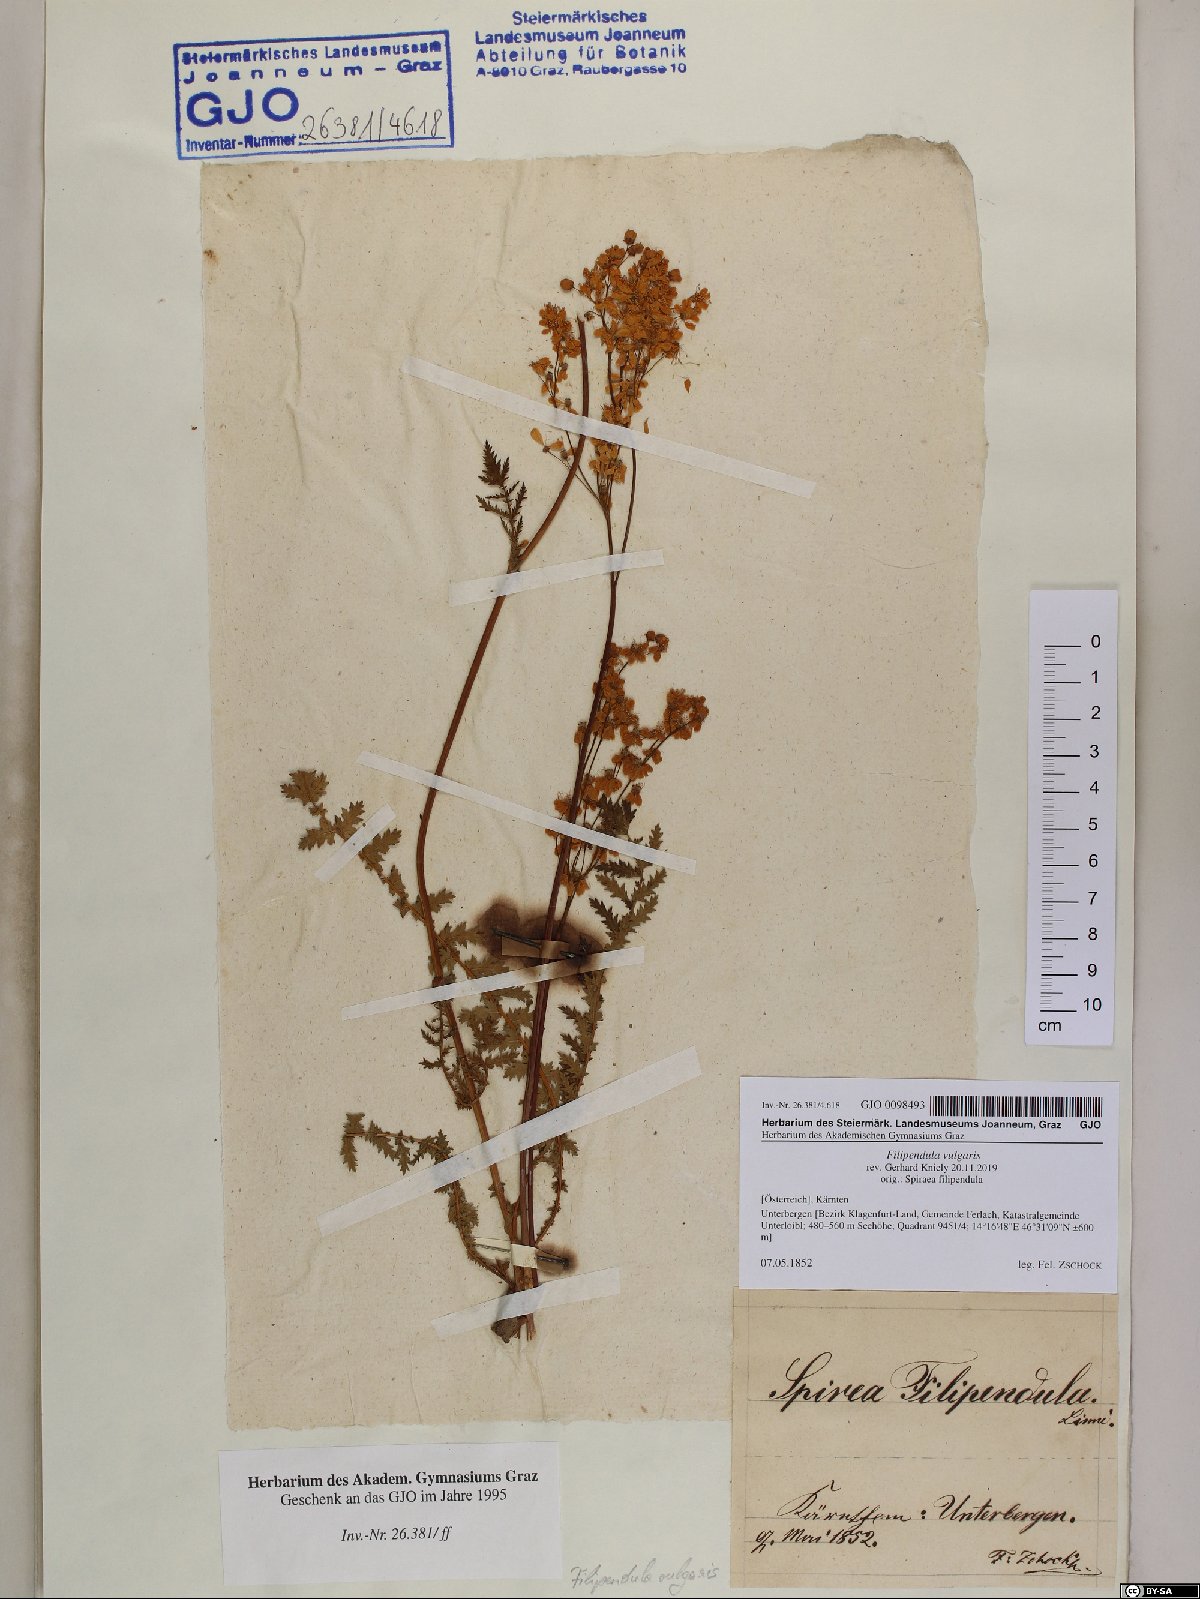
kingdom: Plantae
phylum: Tracheophyta
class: Magnoliopsida
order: Rosales
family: Rosaceae
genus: Filipendula
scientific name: Filipendula vulgaris
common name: Dropwort
